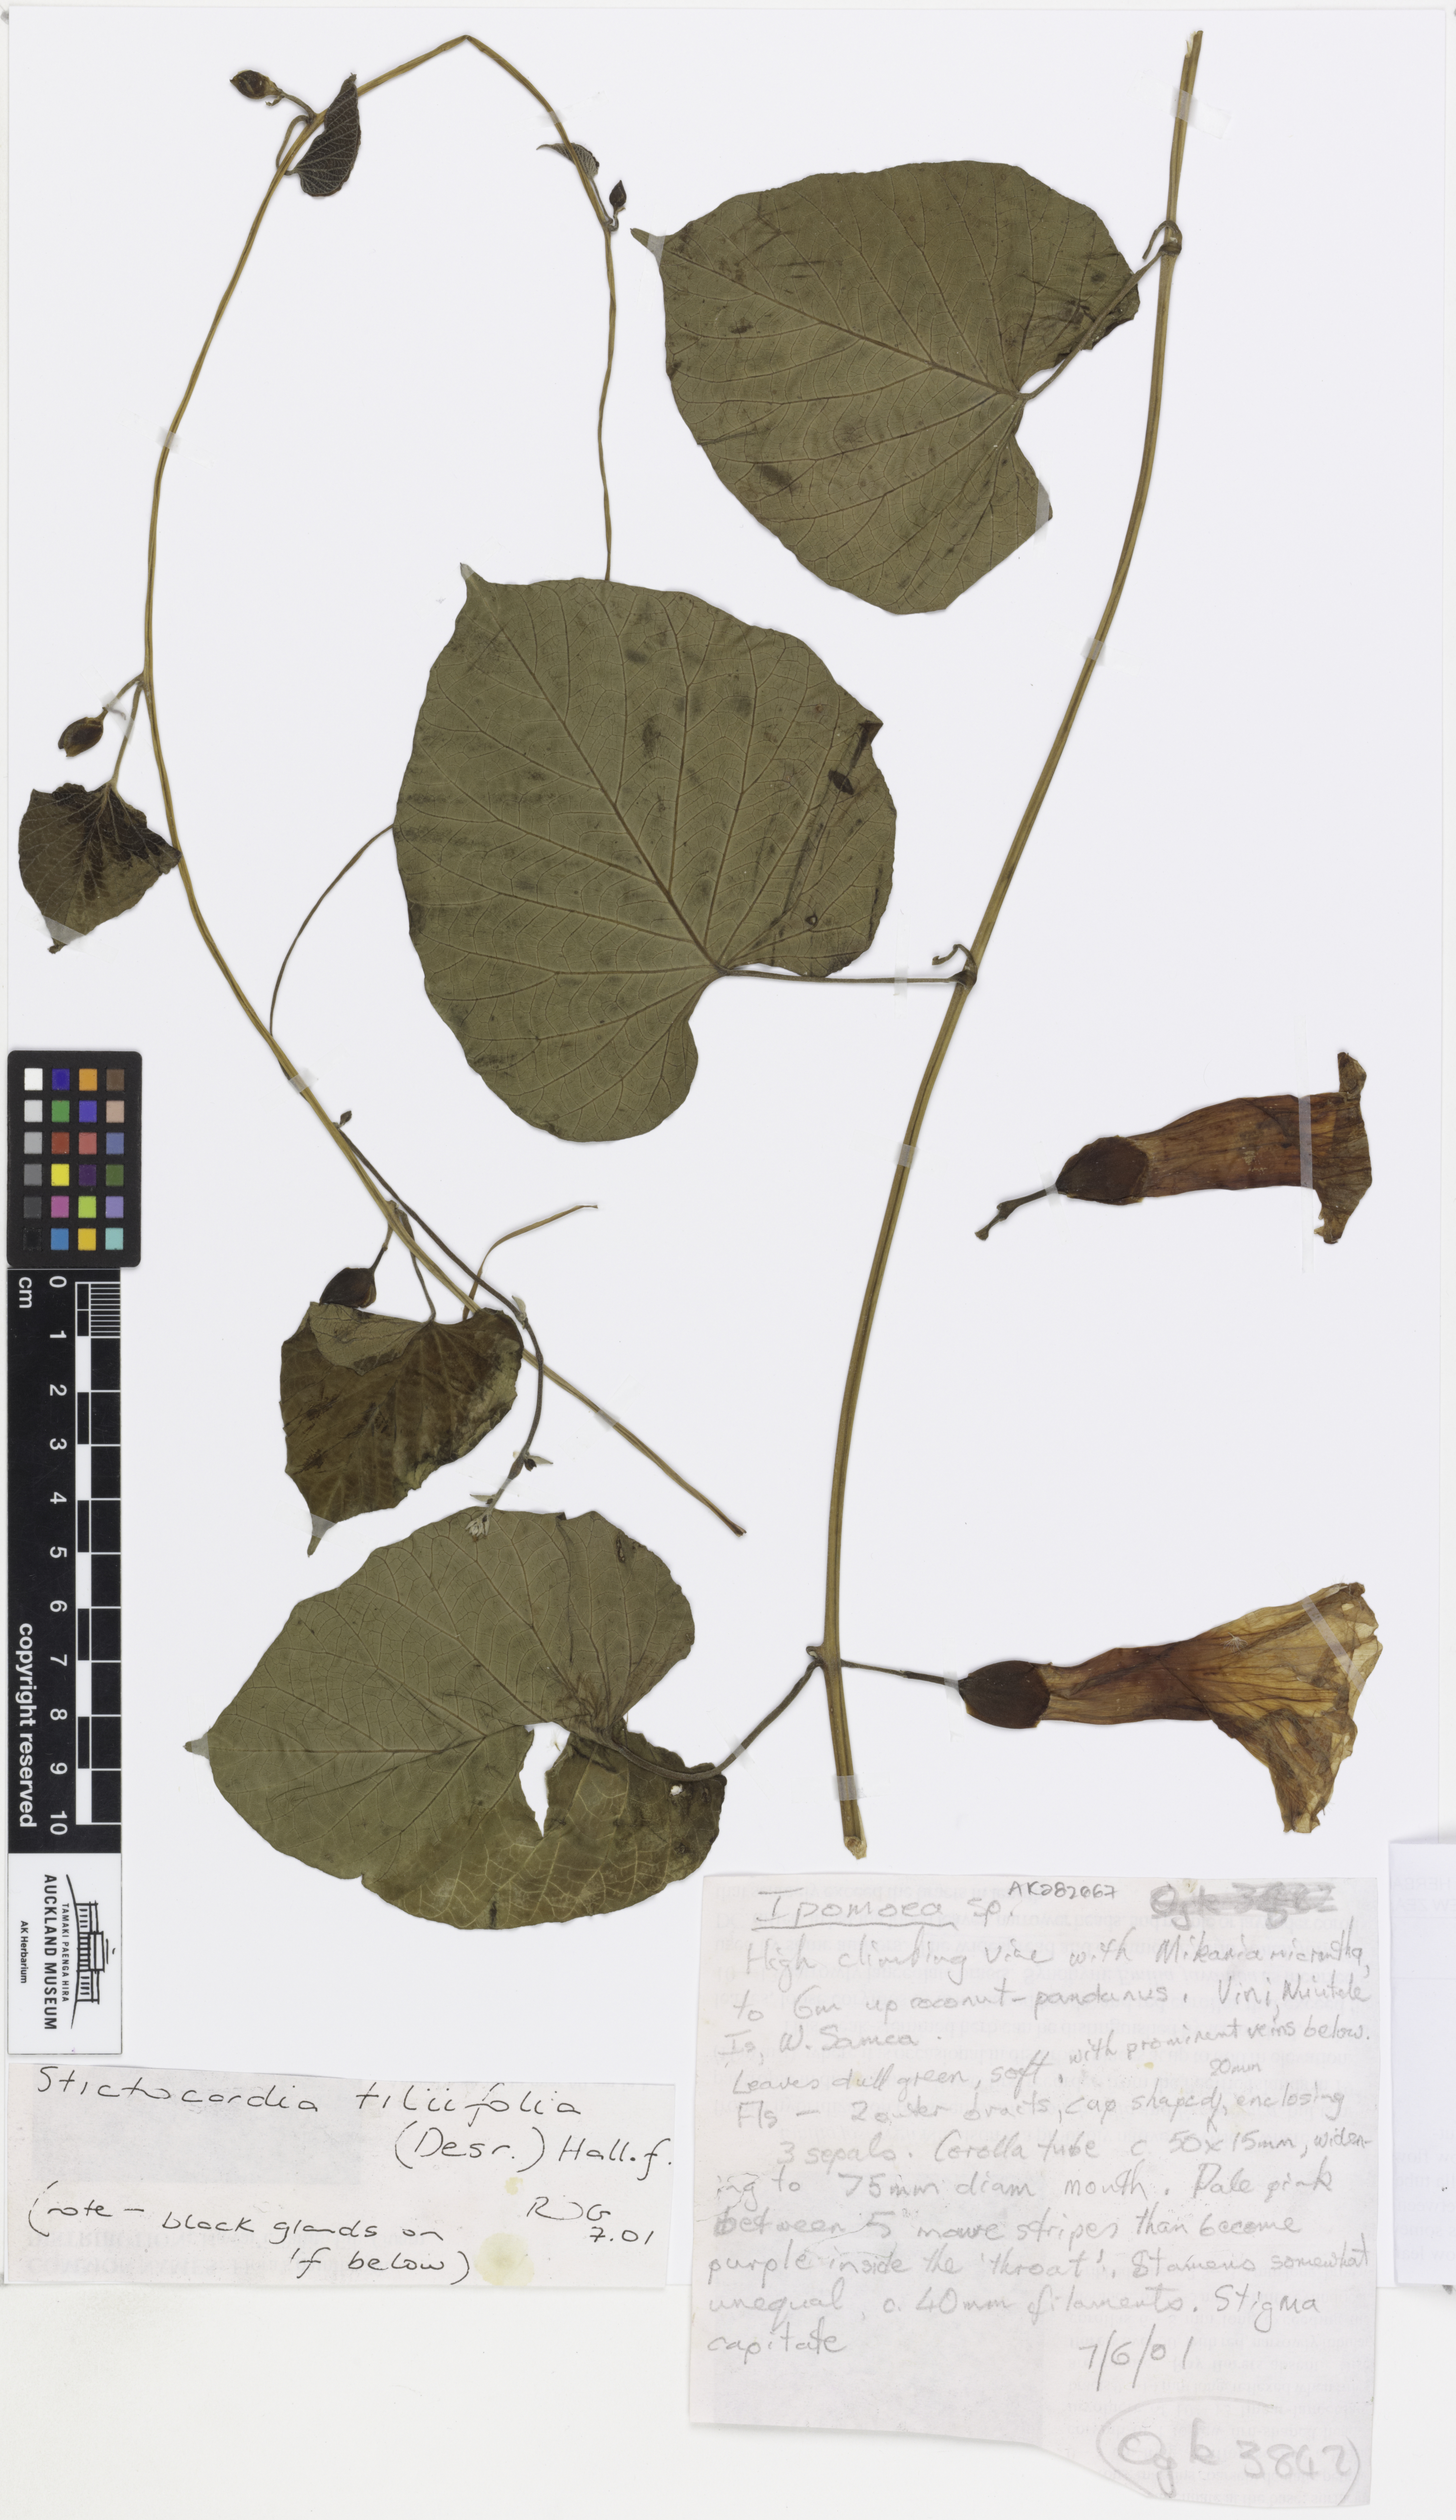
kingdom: Plantae
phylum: Tracheophyta
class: Magnoliopsida
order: Solanales
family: Convolvulaceae
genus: Stictocardia
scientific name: Stictocardia tiliifolia
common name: Spottedheart
